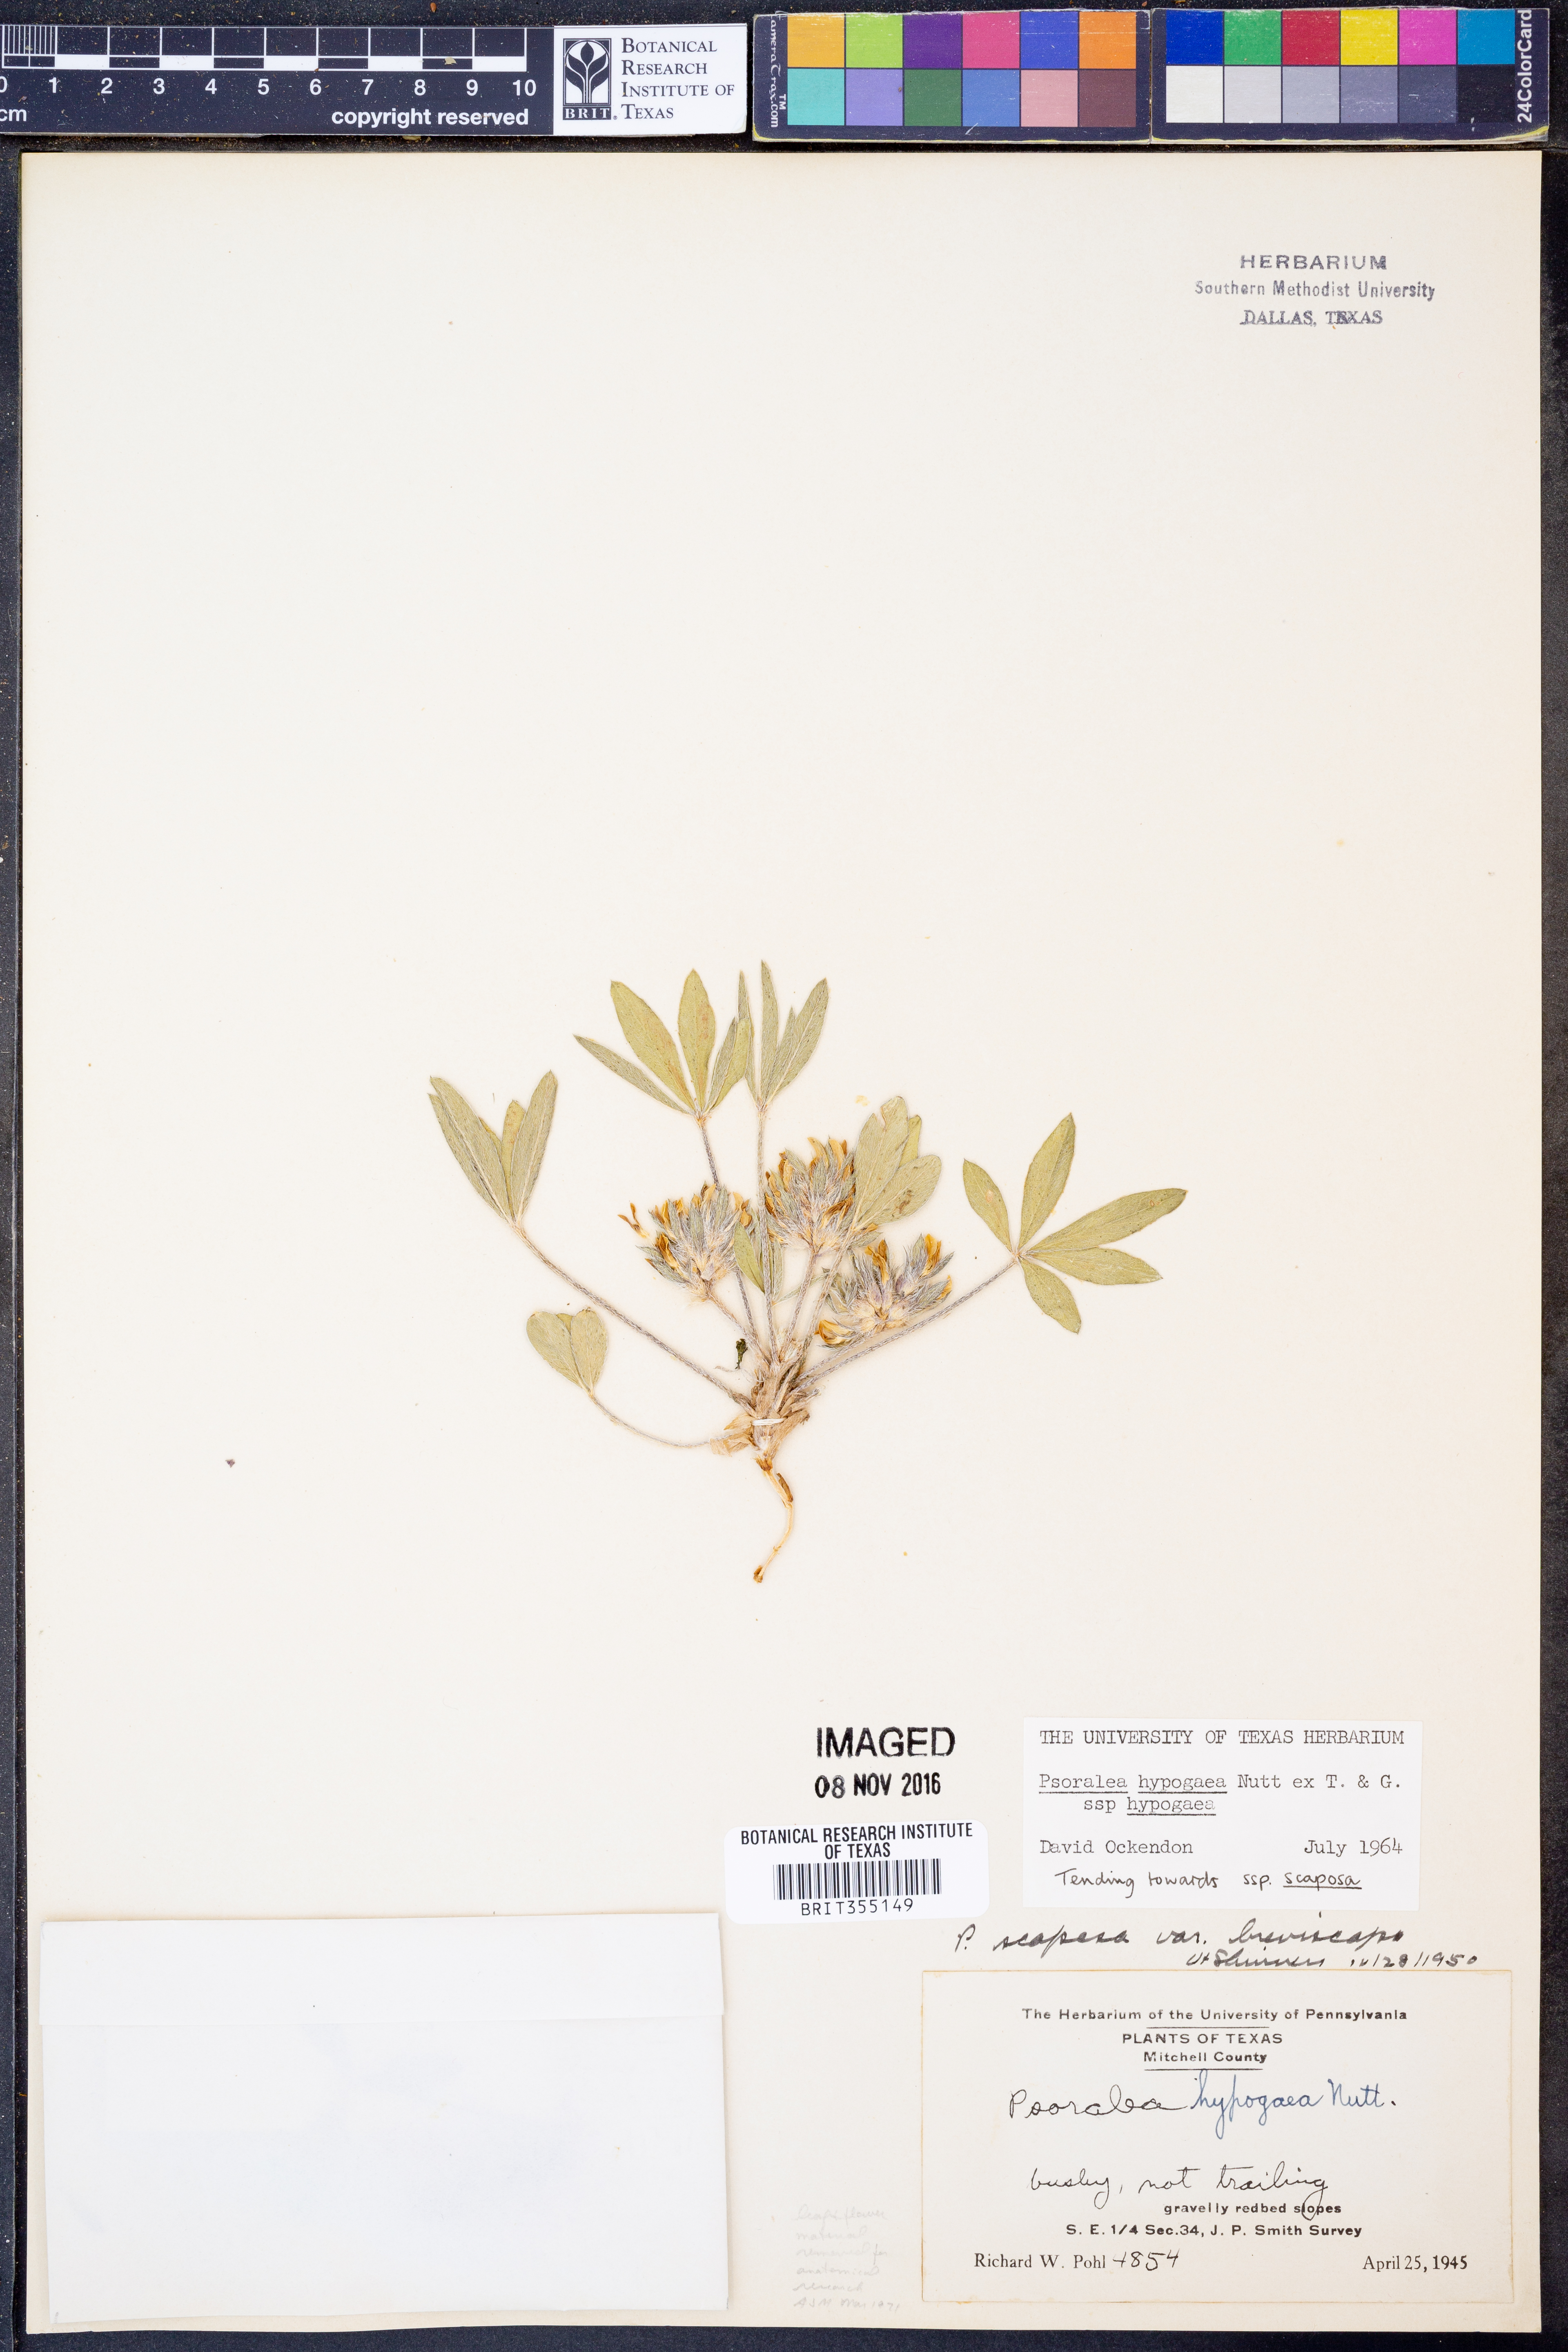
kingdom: Plantae
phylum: Tracheophyta
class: Magnoliopsida
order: Fabales
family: Fabaceae
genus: Pediomelum
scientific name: Pediomelum hypogaeum
